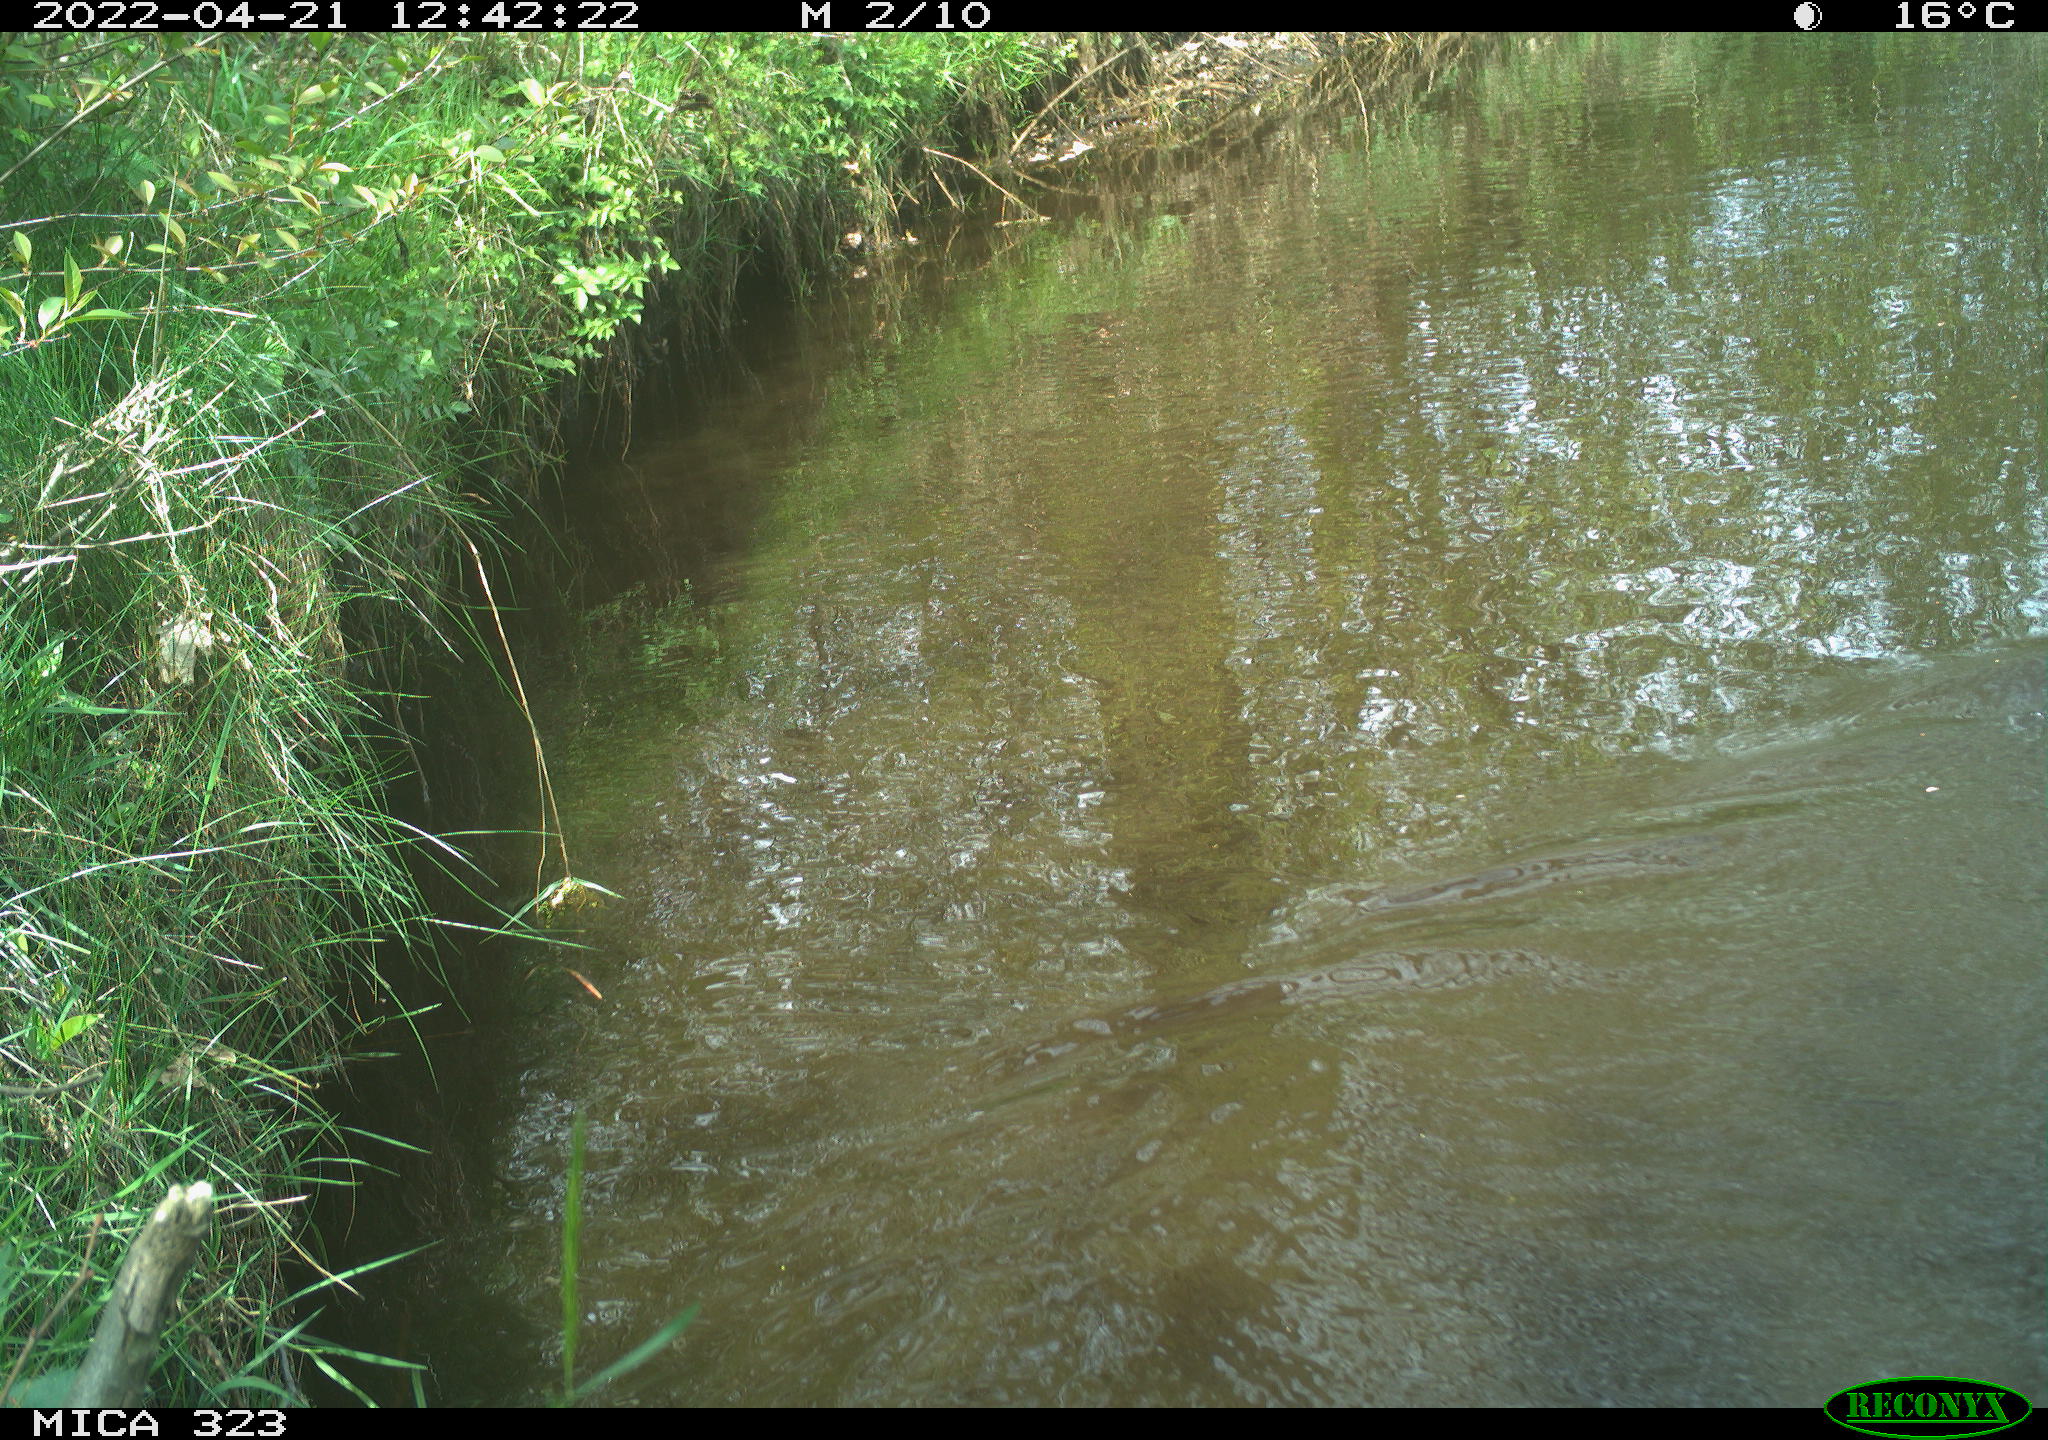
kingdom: Animalia
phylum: Chordata
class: Aves
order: Gruiformes
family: Rallidae
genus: Gallinula
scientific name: Gallinula chloropus
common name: Common moorhen
